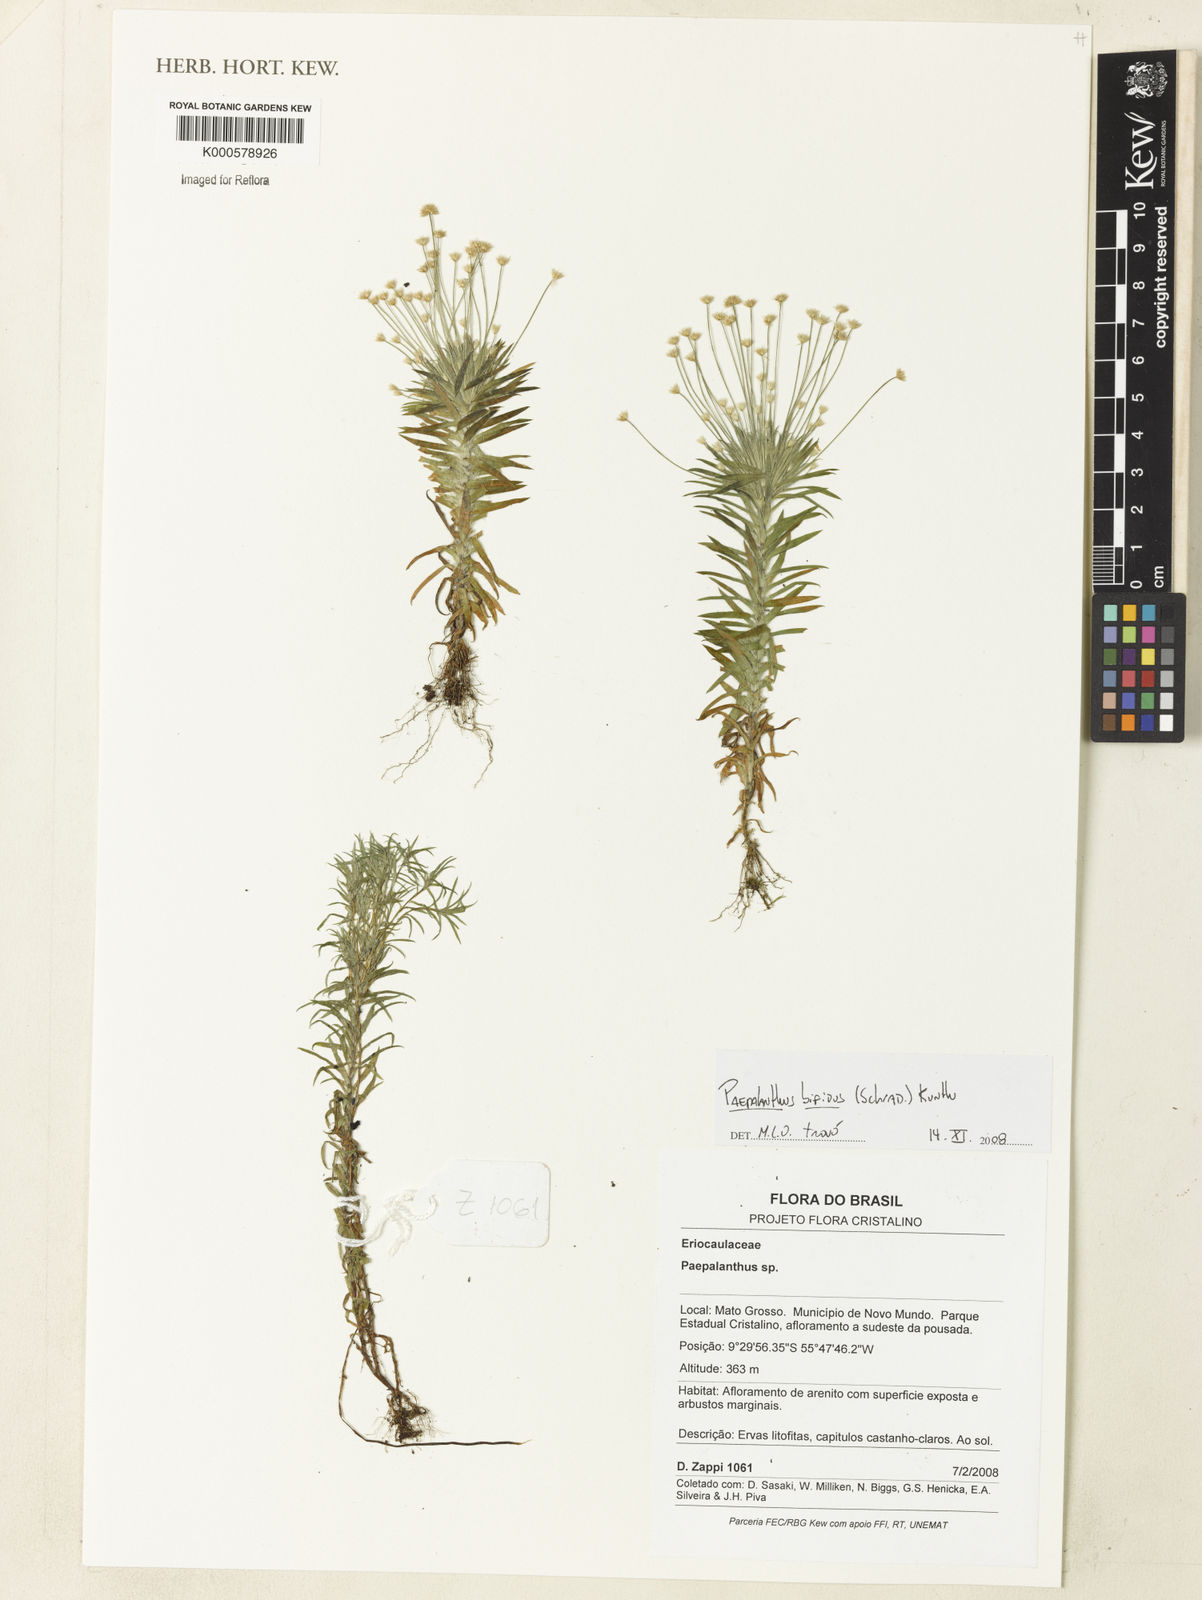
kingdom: Plantae
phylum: Tracheophyta
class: Liliopsida
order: Poales
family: Eriocaulaceae
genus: Paepalanthus
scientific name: Paepalanthus bifidus
